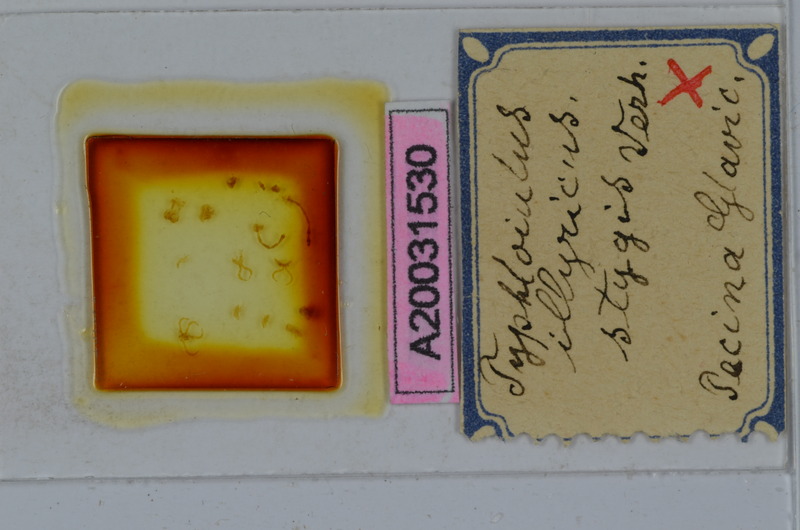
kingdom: Animalia
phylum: Arthropoda
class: Diplopoda
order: Julida
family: Julidae
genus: Stygiiulus
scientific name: Stygiiulus illyricus
